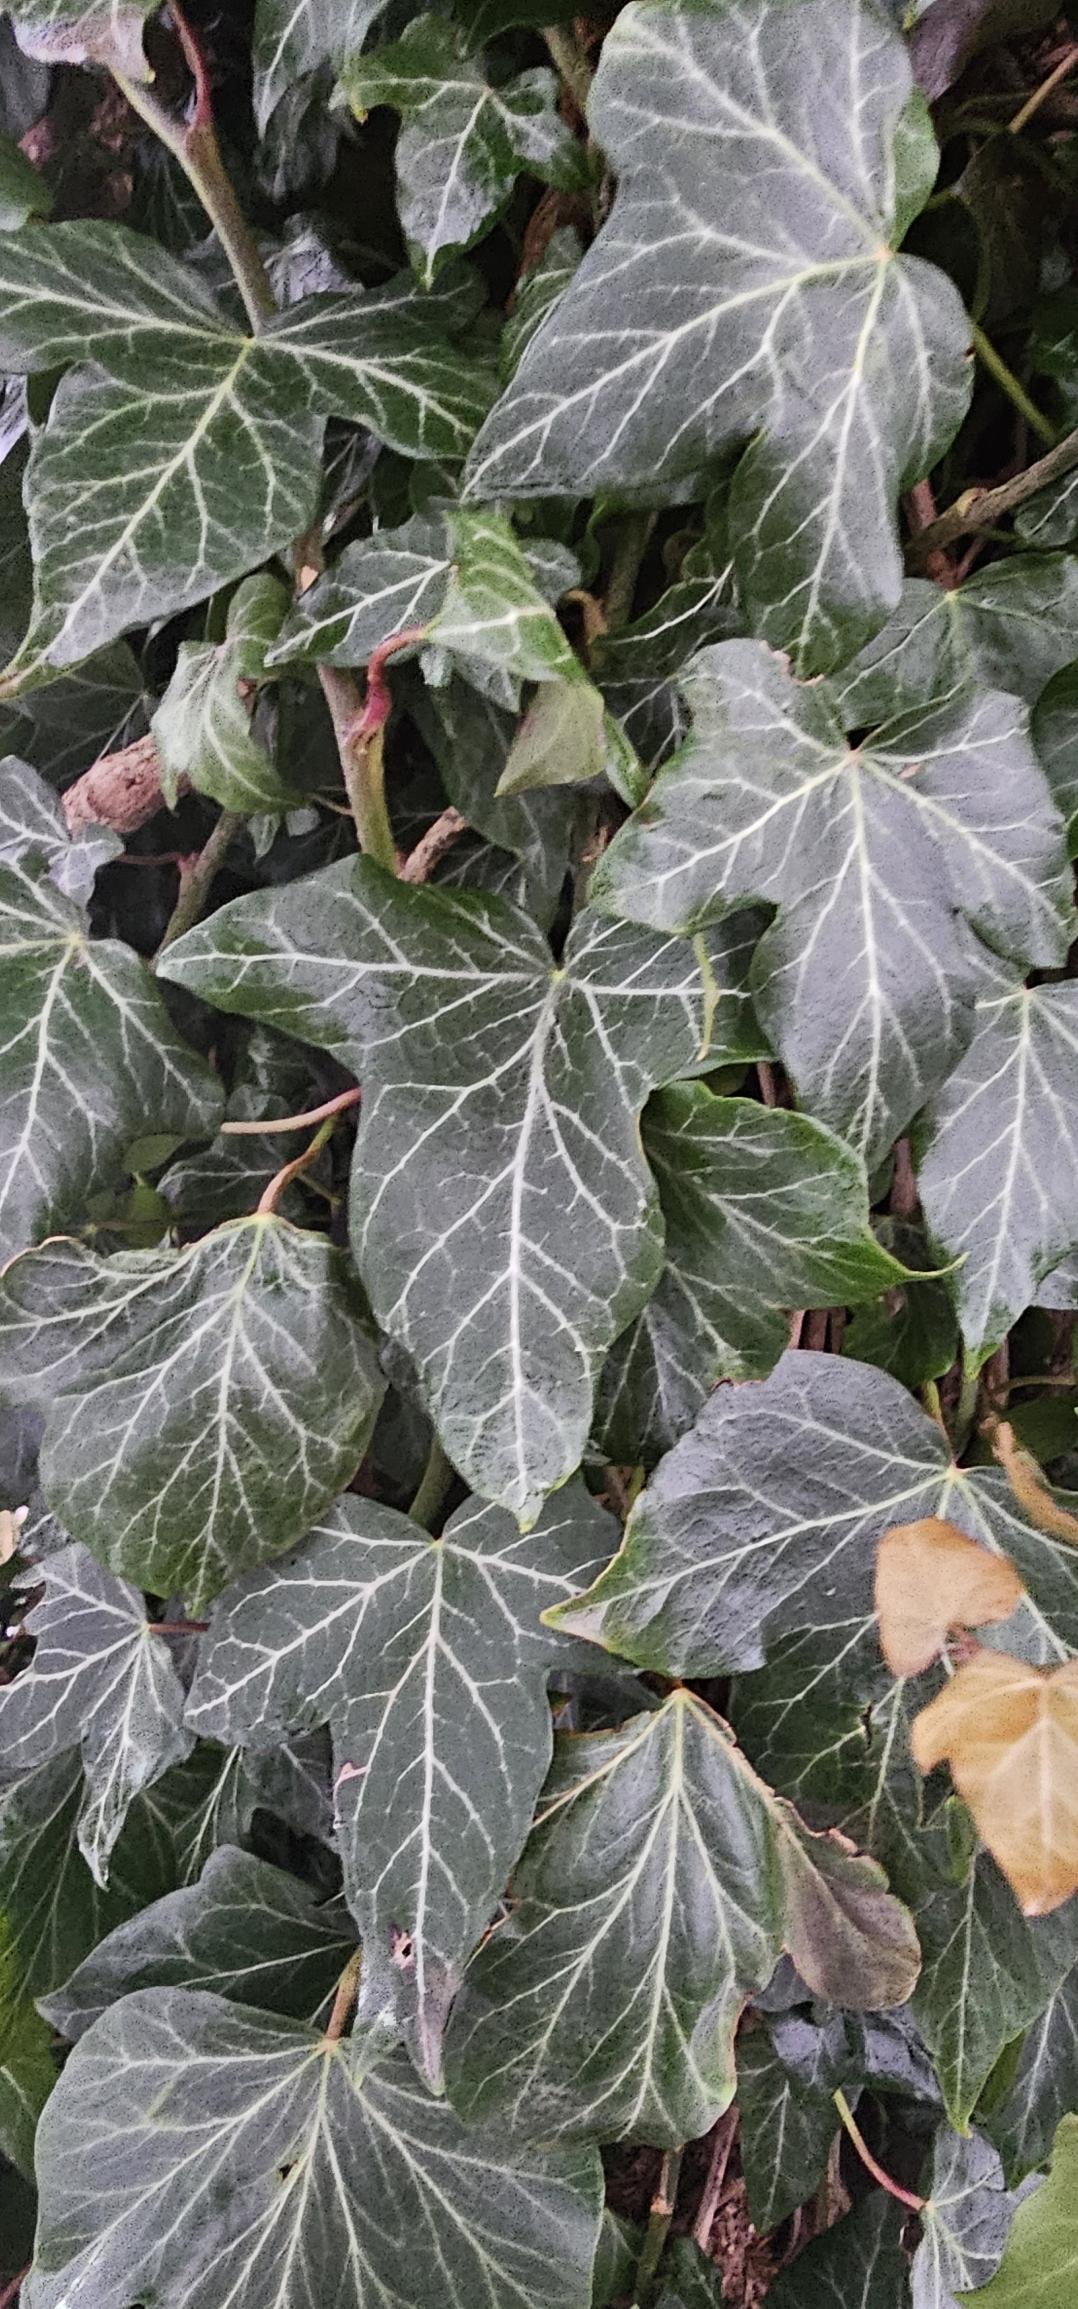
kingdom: Plantae
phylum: Tracheophyta
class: Magnoliopsida
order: Apiales
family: Araliaceae
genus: Hedera
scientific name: Hedera helix
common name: Vedbend
